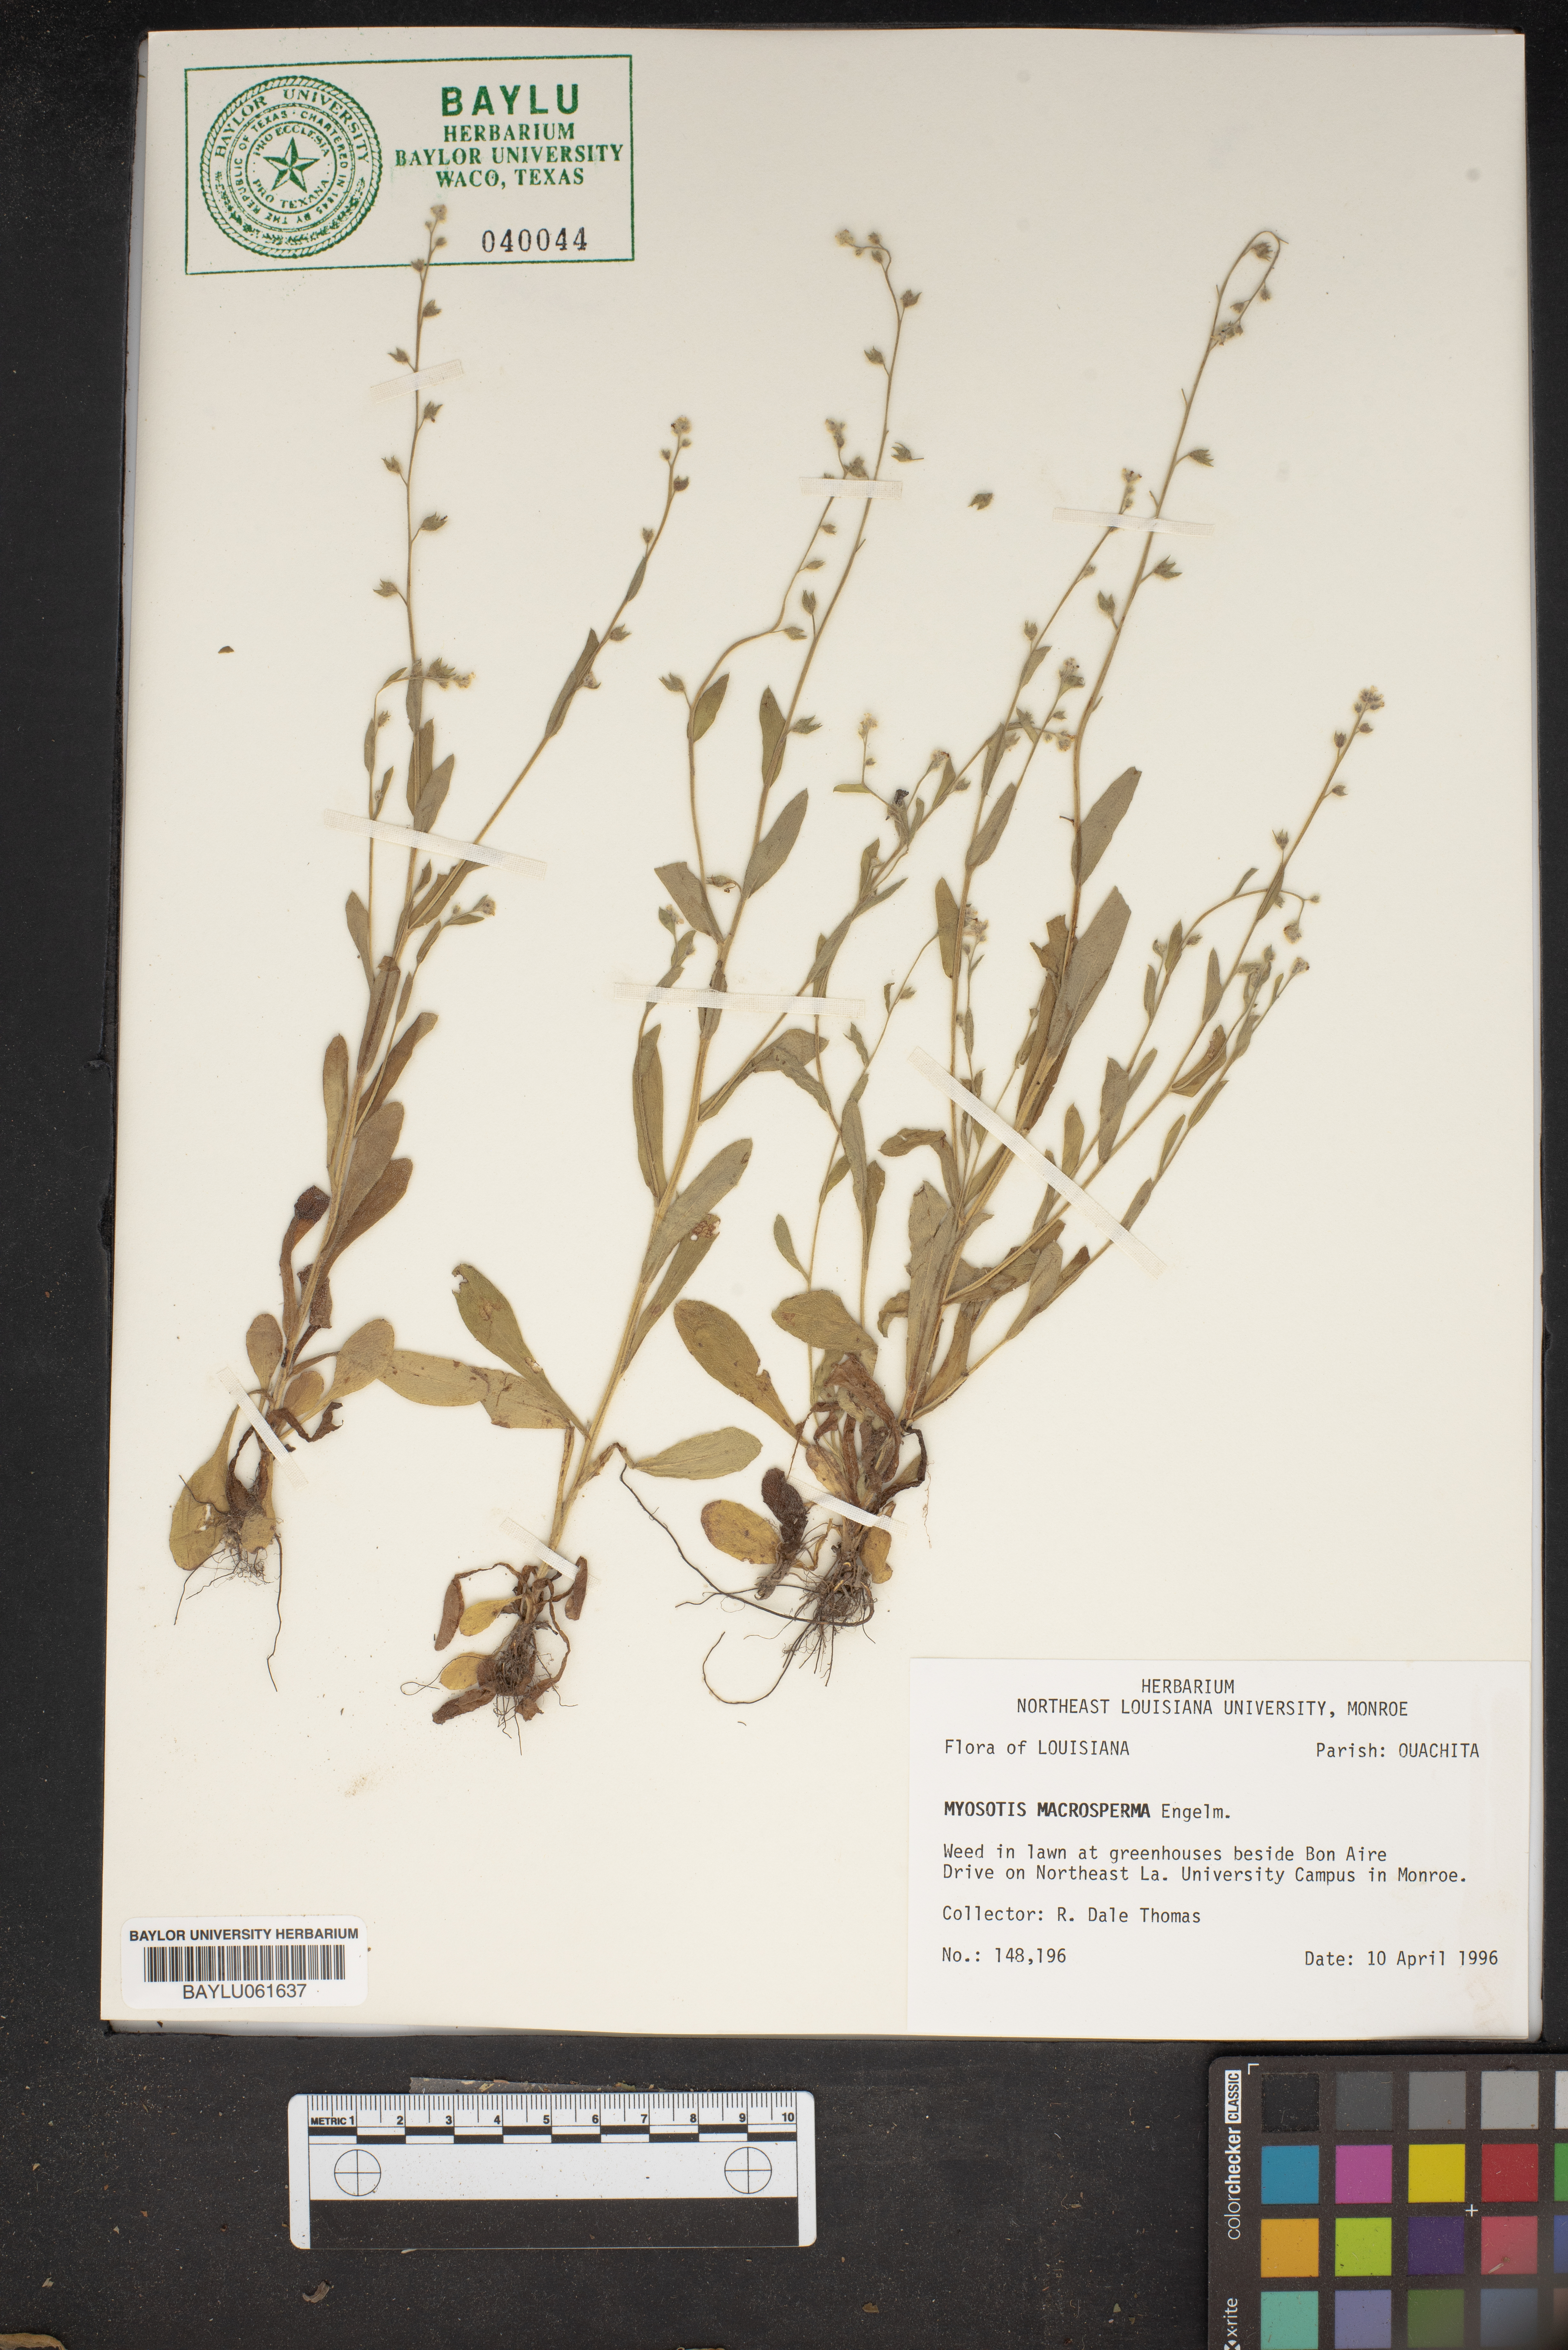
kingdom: Plantae
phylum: Tracheophyta
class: Magnoliopsida
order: Boraginales
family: Boraginaceae
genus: Myosotis
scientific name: Myosotis macrosperma
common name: Large-seed forget-me-not
